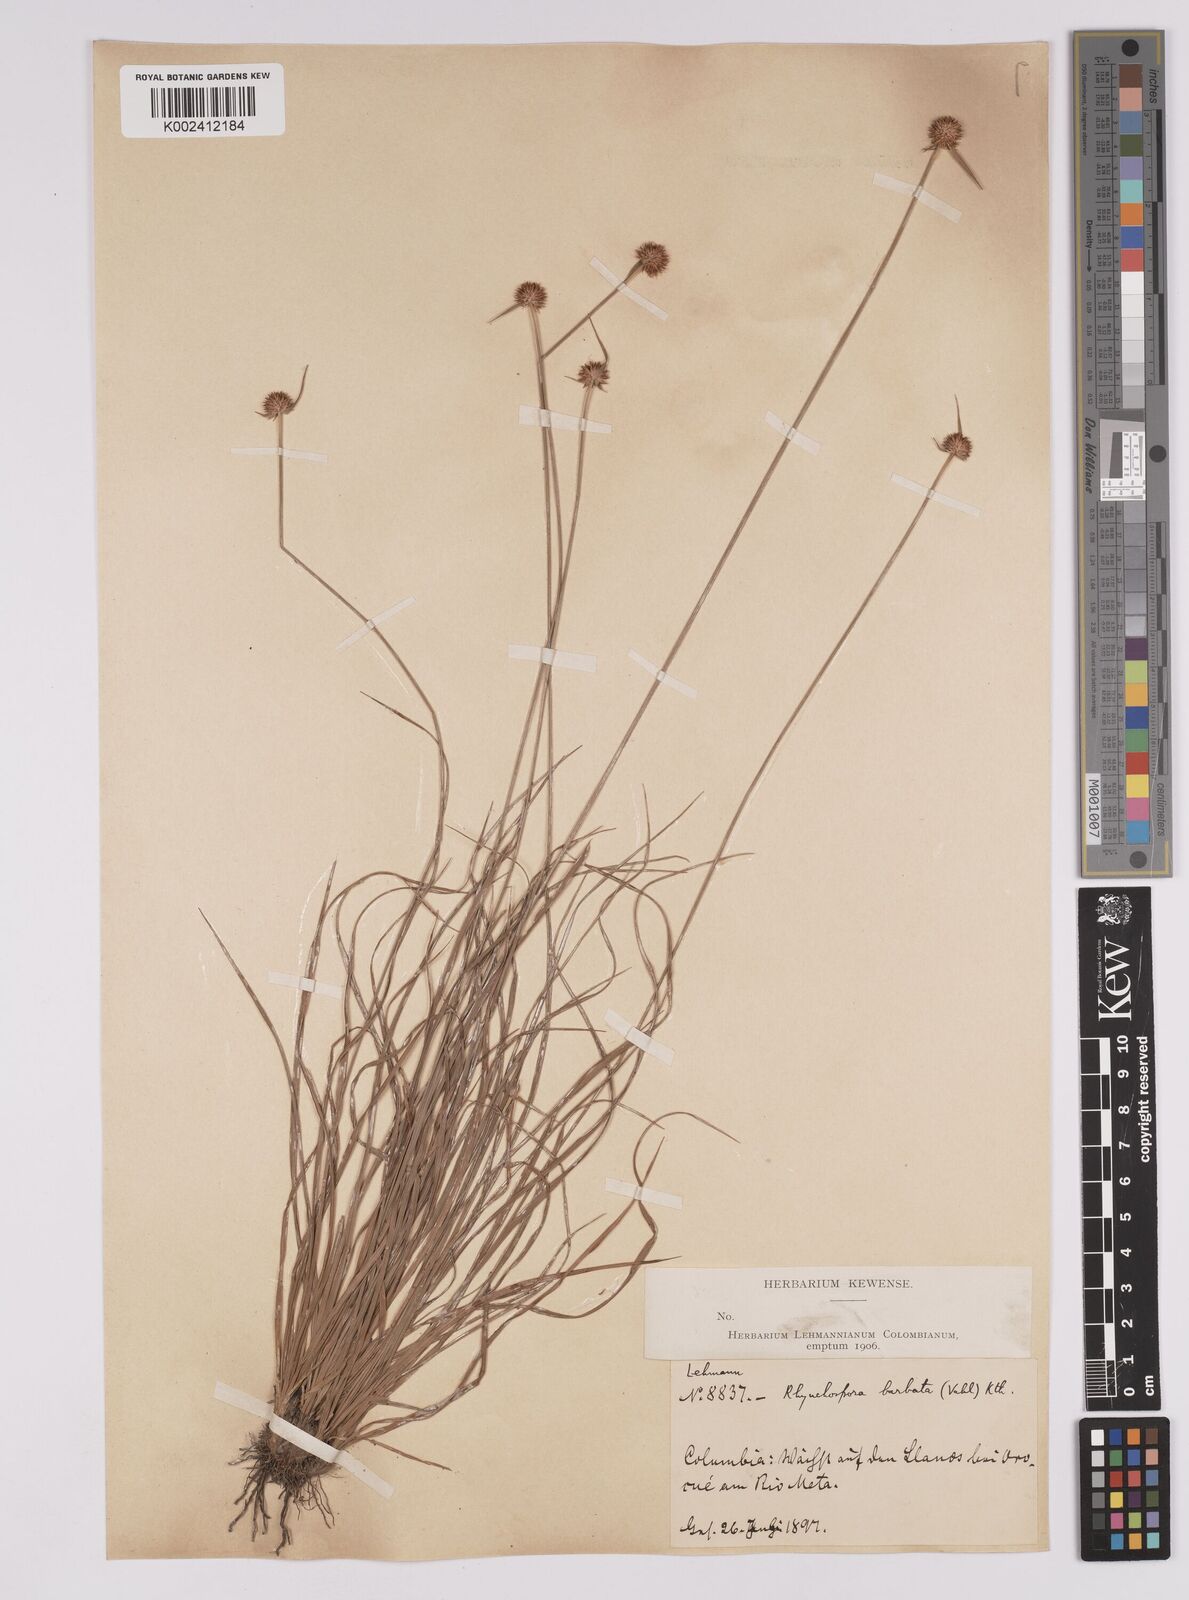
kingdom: Plantae
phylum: Tracheophyta
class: Liliopsida
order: Poales
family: Cyperaceae
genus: Rhynchospora
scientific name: Rhynchospora barbata
